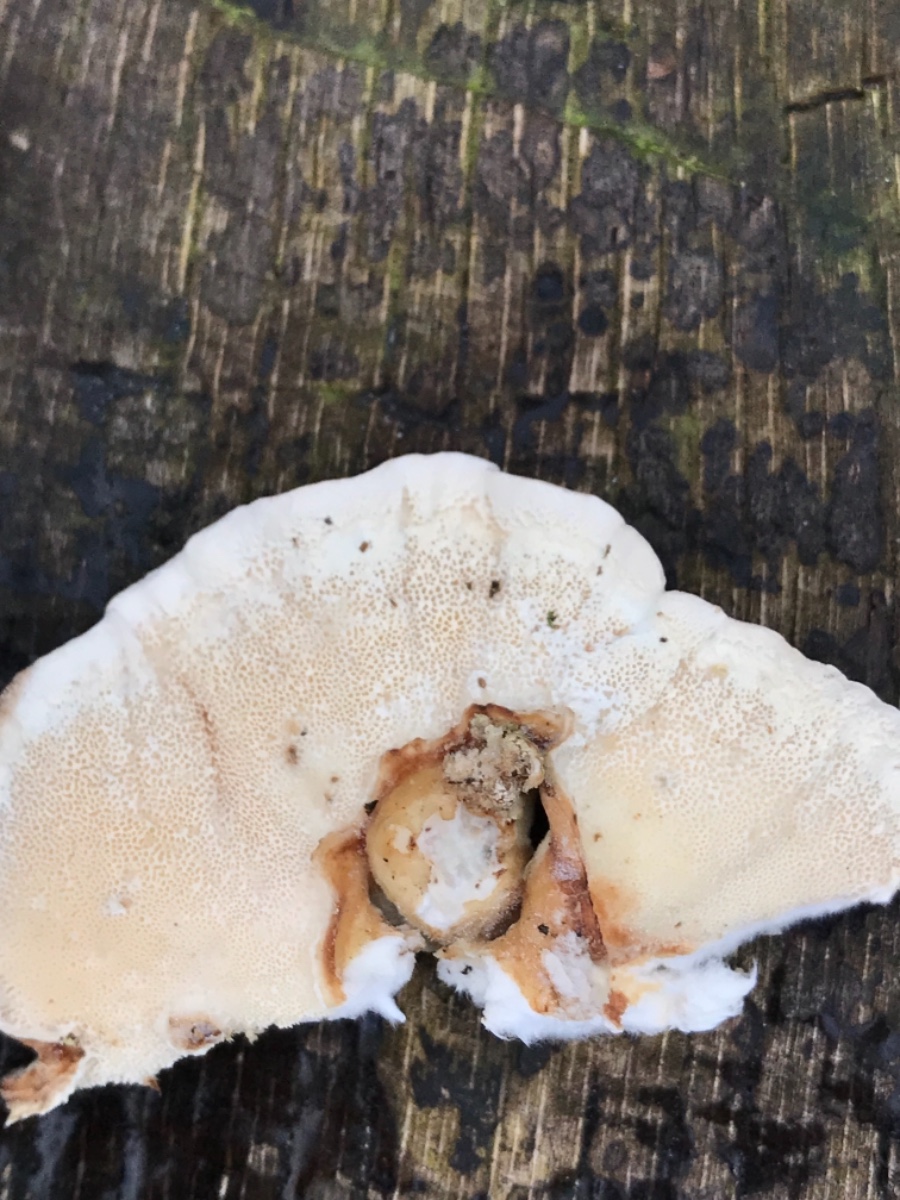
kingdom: Fungi
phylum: Basidiomycota
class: Agaricomycetes
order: Polyporales
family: Polyporaceae
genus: Trametes
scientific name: Trametes versicolor
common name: broget læderporesvamp
